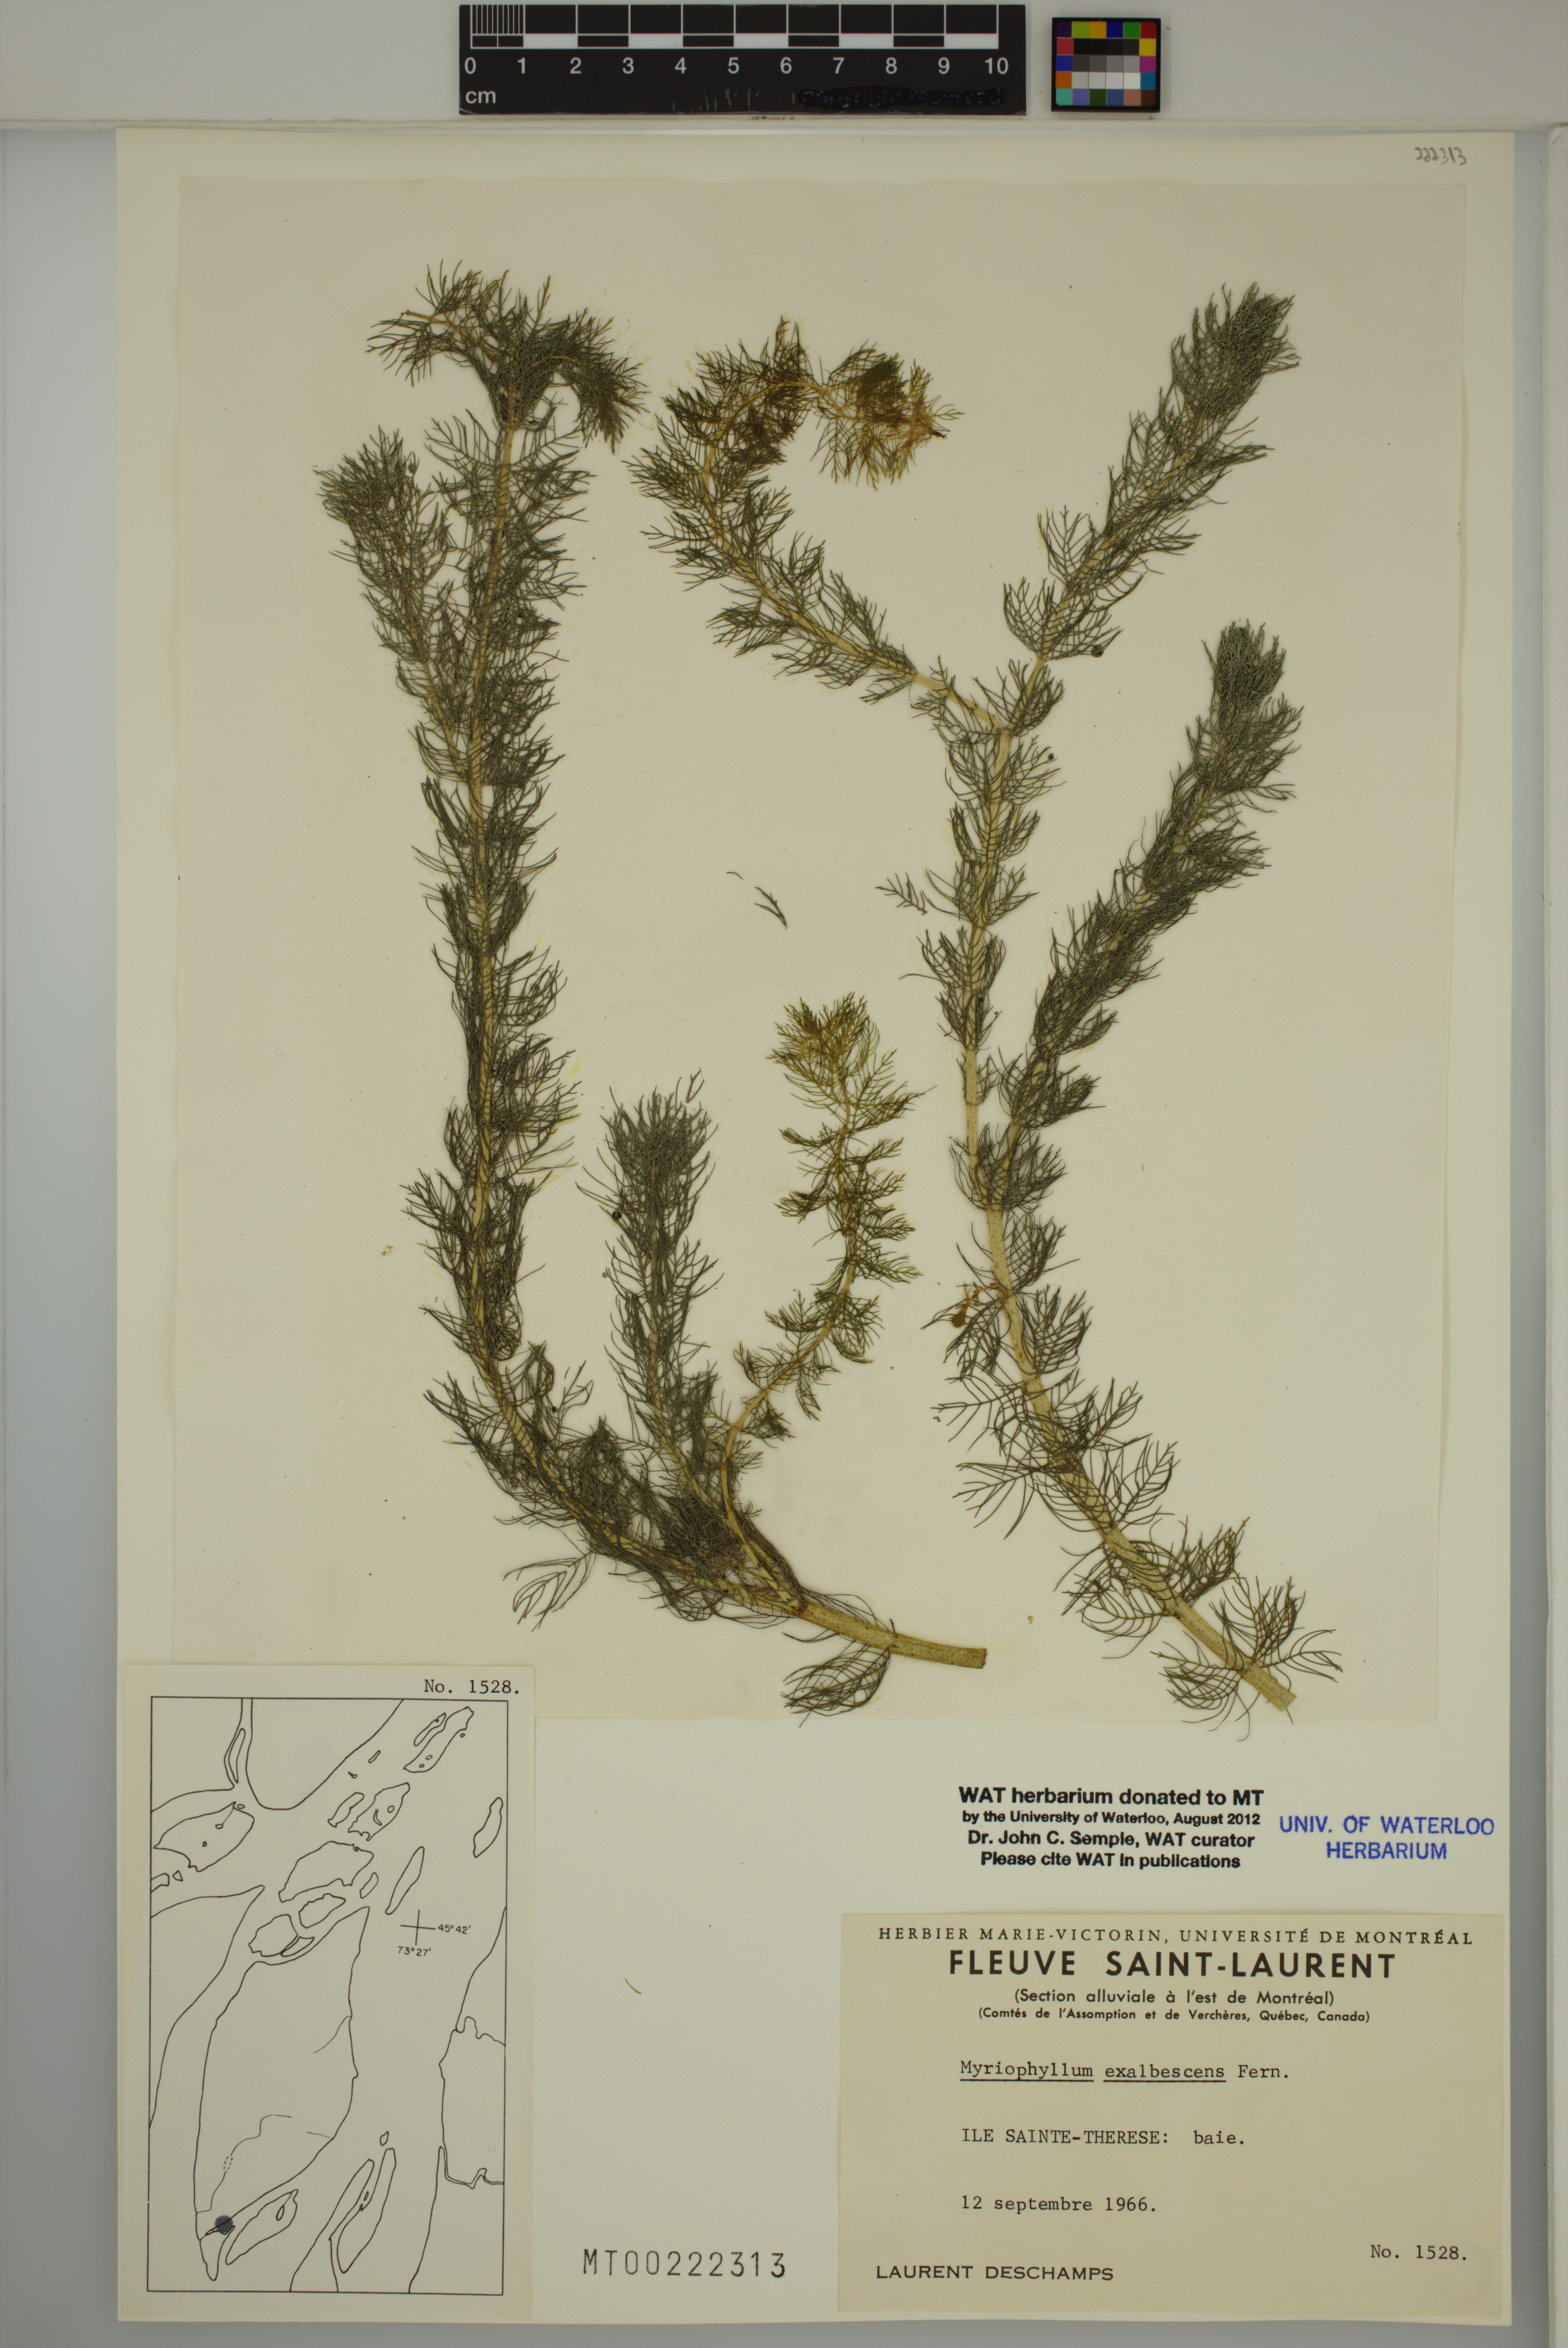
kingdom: Plantae
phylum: Tracheophyta
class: Magnoliopsida
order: Saxifragales
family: Haloragaceae
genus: Myriophyllum
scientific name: Myriophyllum sibiricum
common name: Siberian water-milfoil
